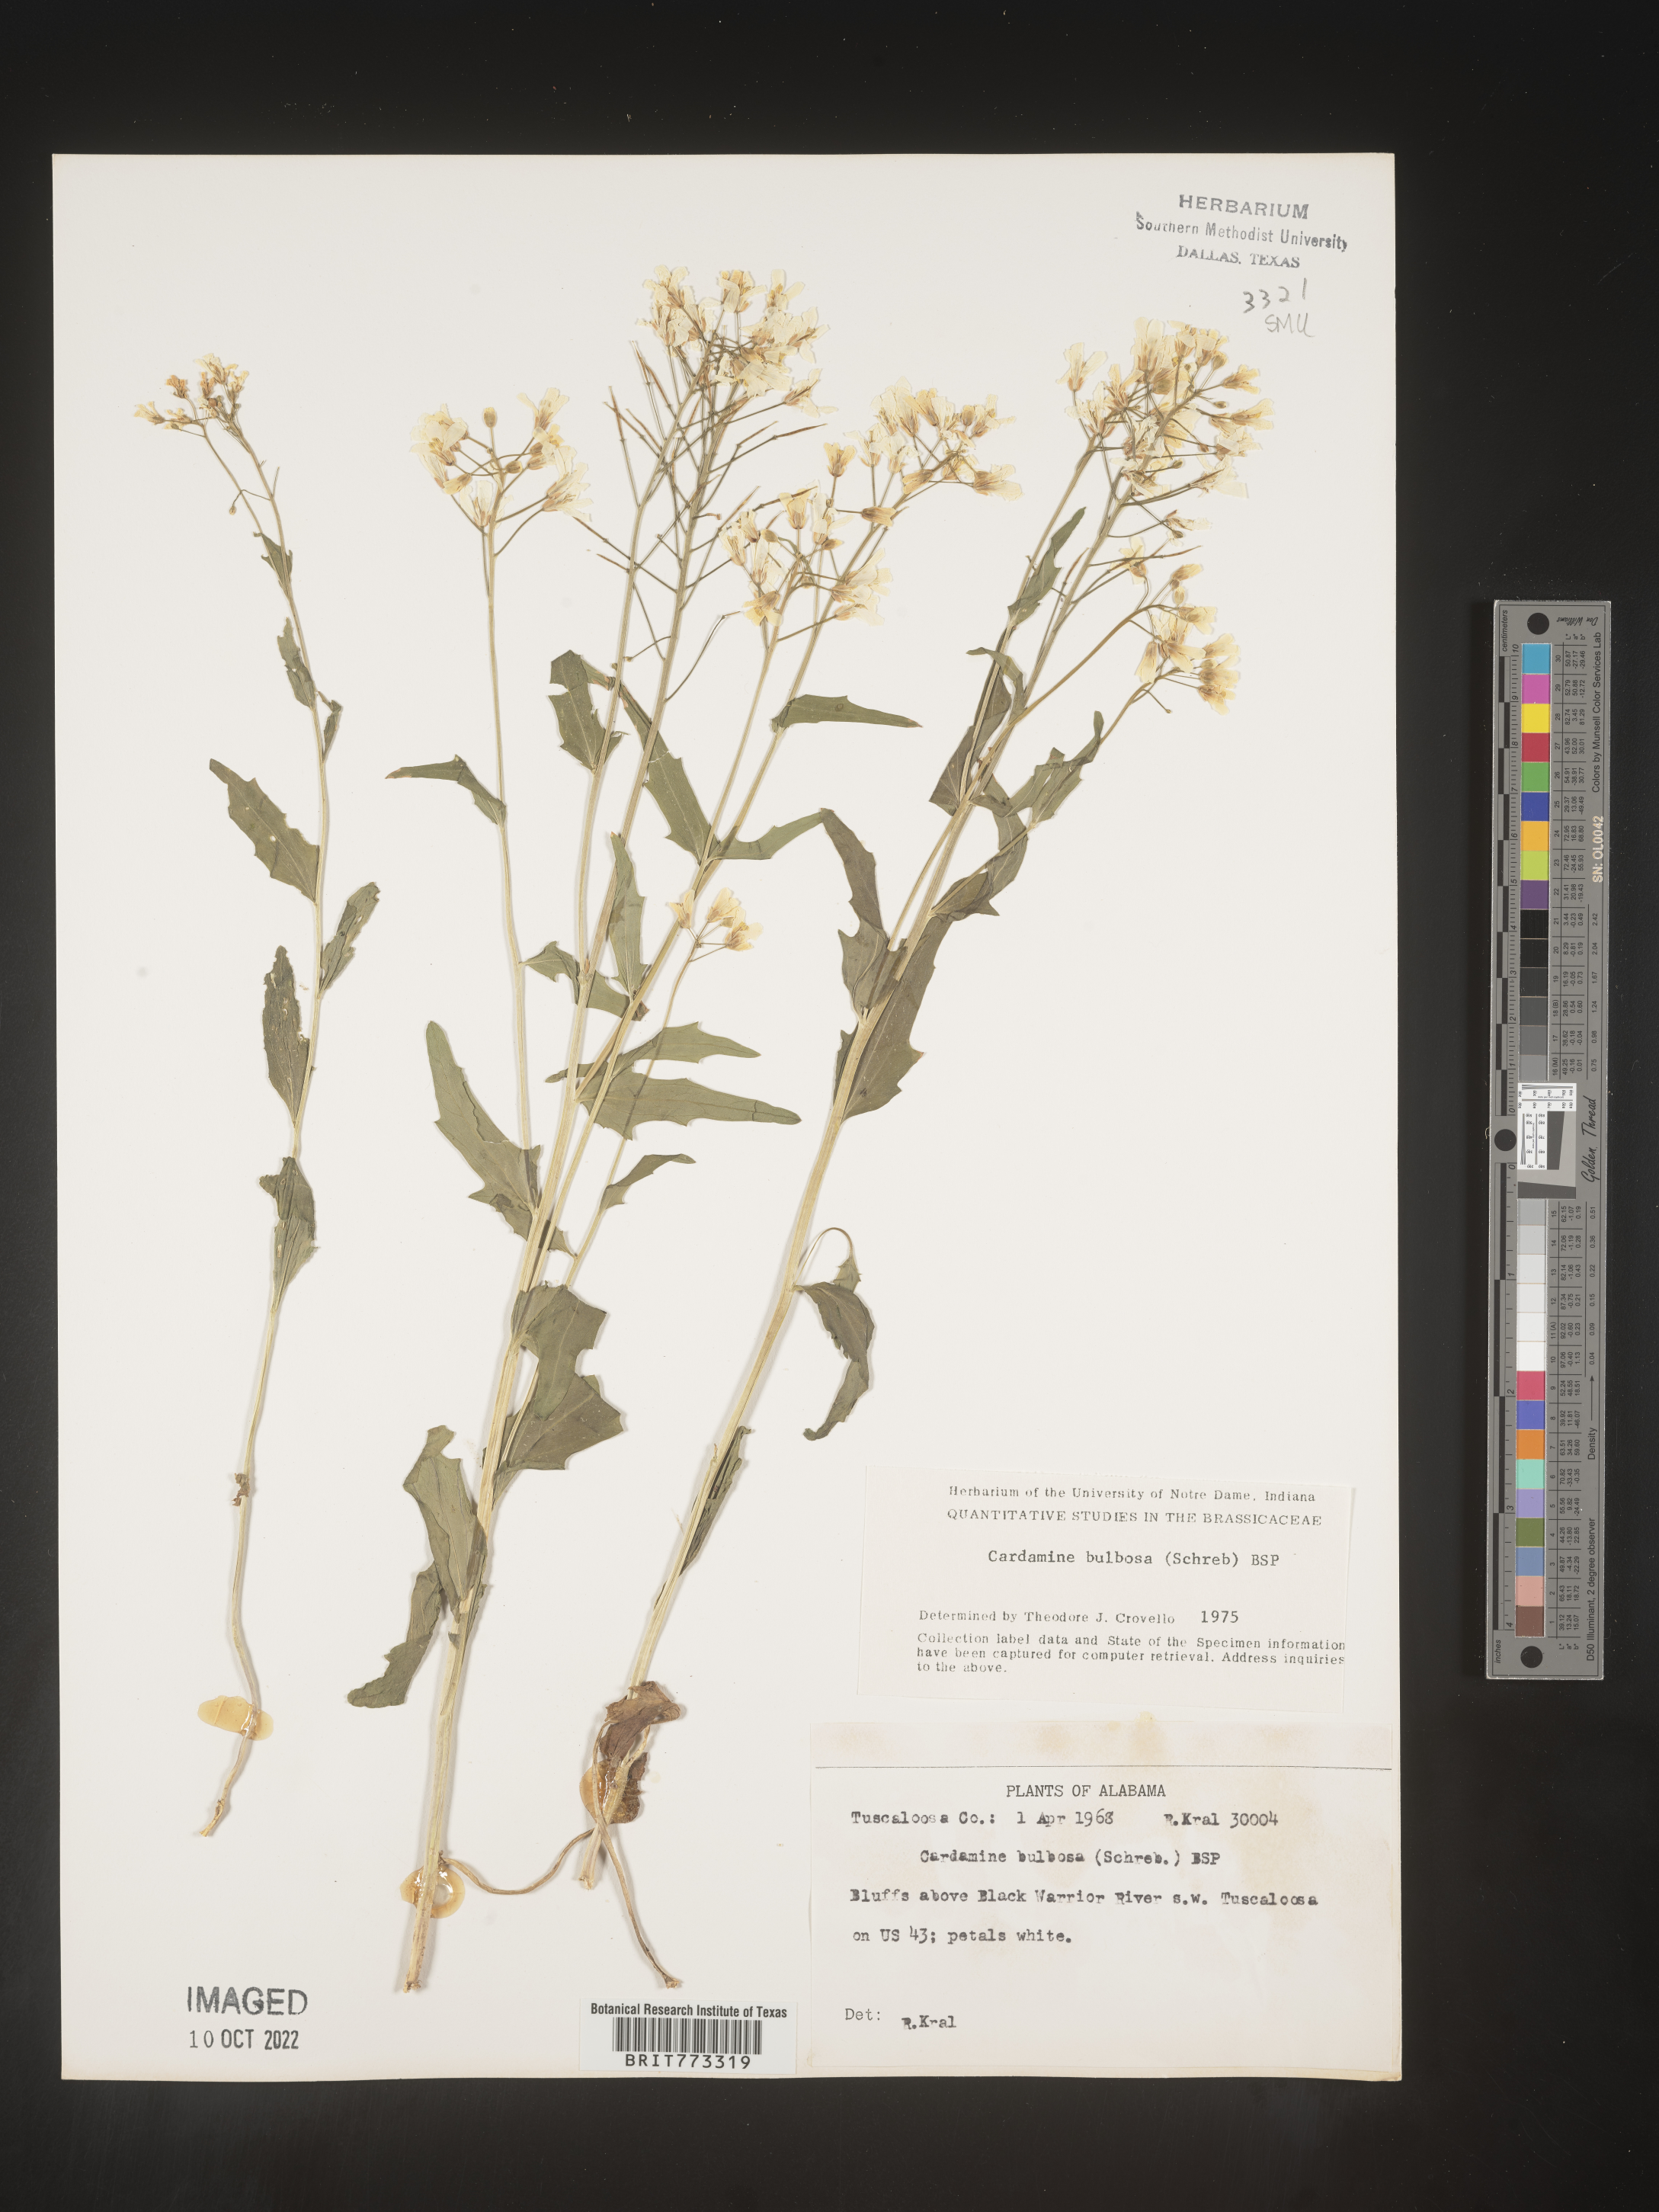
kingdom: Plantae
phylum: Tracheophyta
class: Magnoliopsida
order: Brassicales
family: Brassicaceae
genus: Cardamine
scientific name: Cardamine bulbosa
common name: Spring cress
